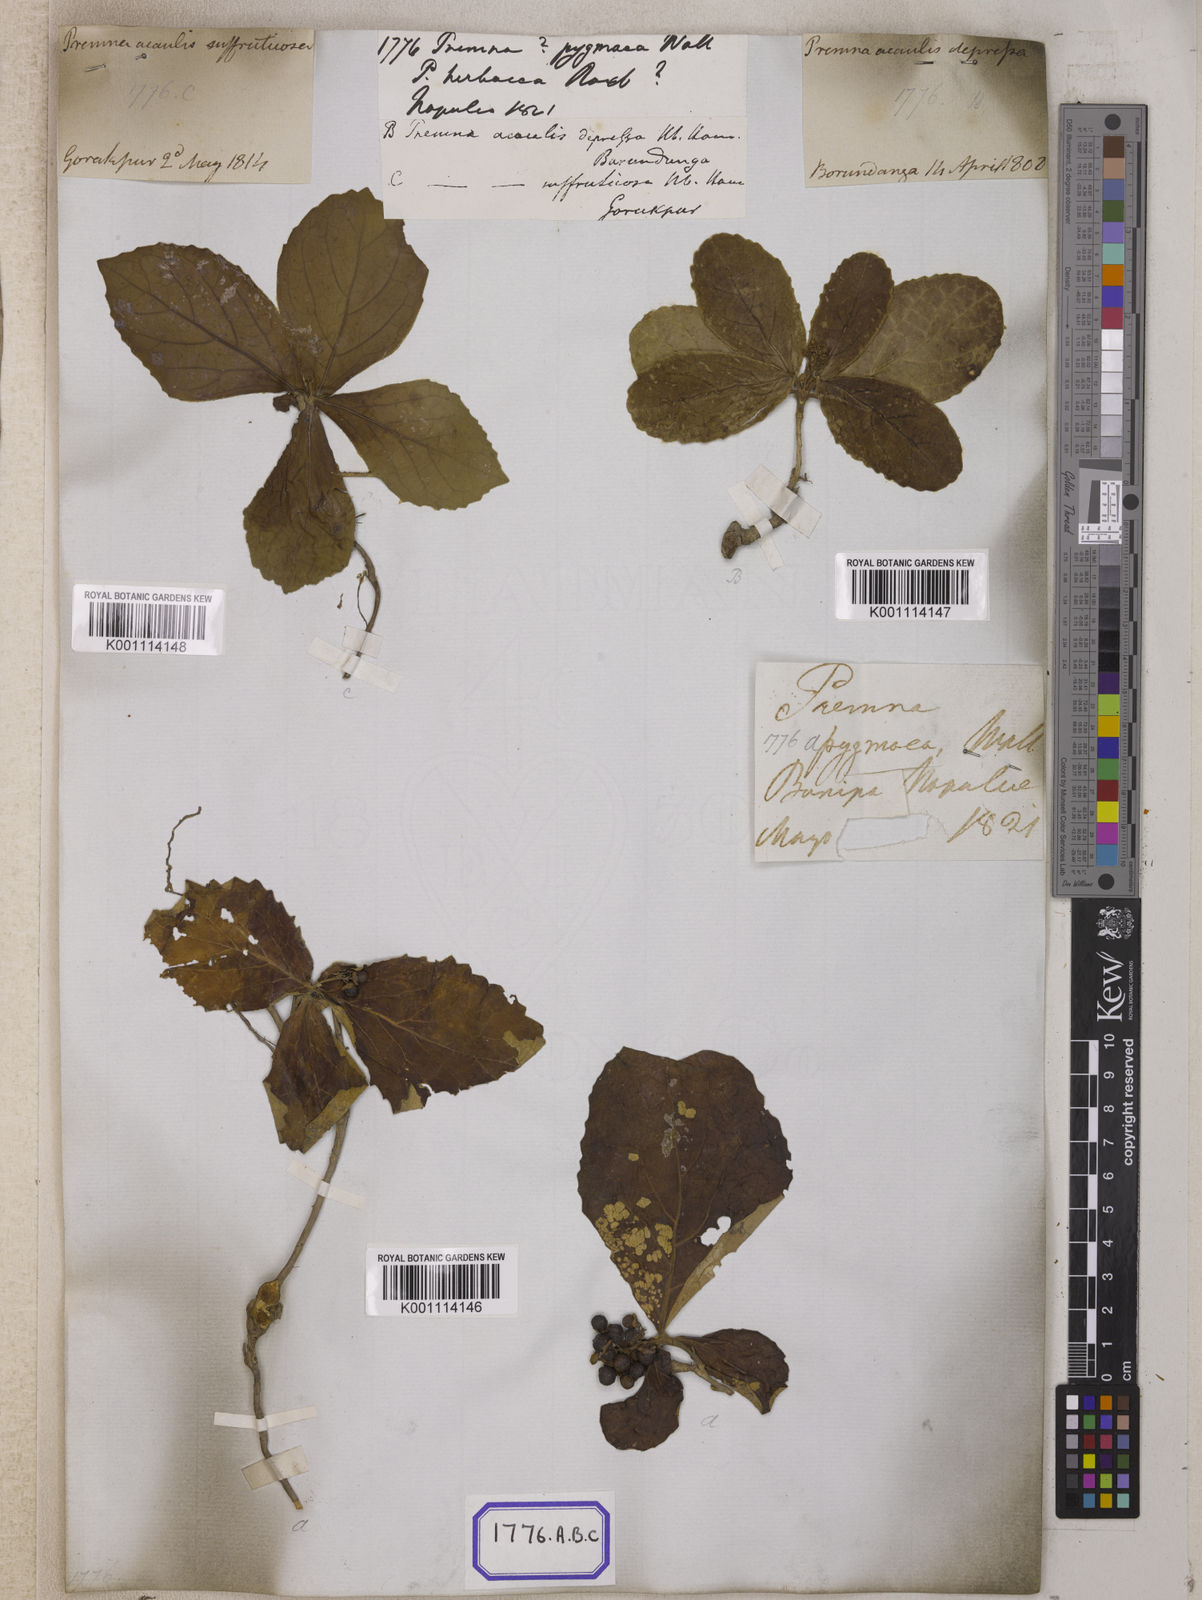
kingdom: Plantae
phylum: Tracheophyta
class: Magnoliopsida
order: Lamiales
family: Lamiaceae
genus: Premna
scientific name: Premna
